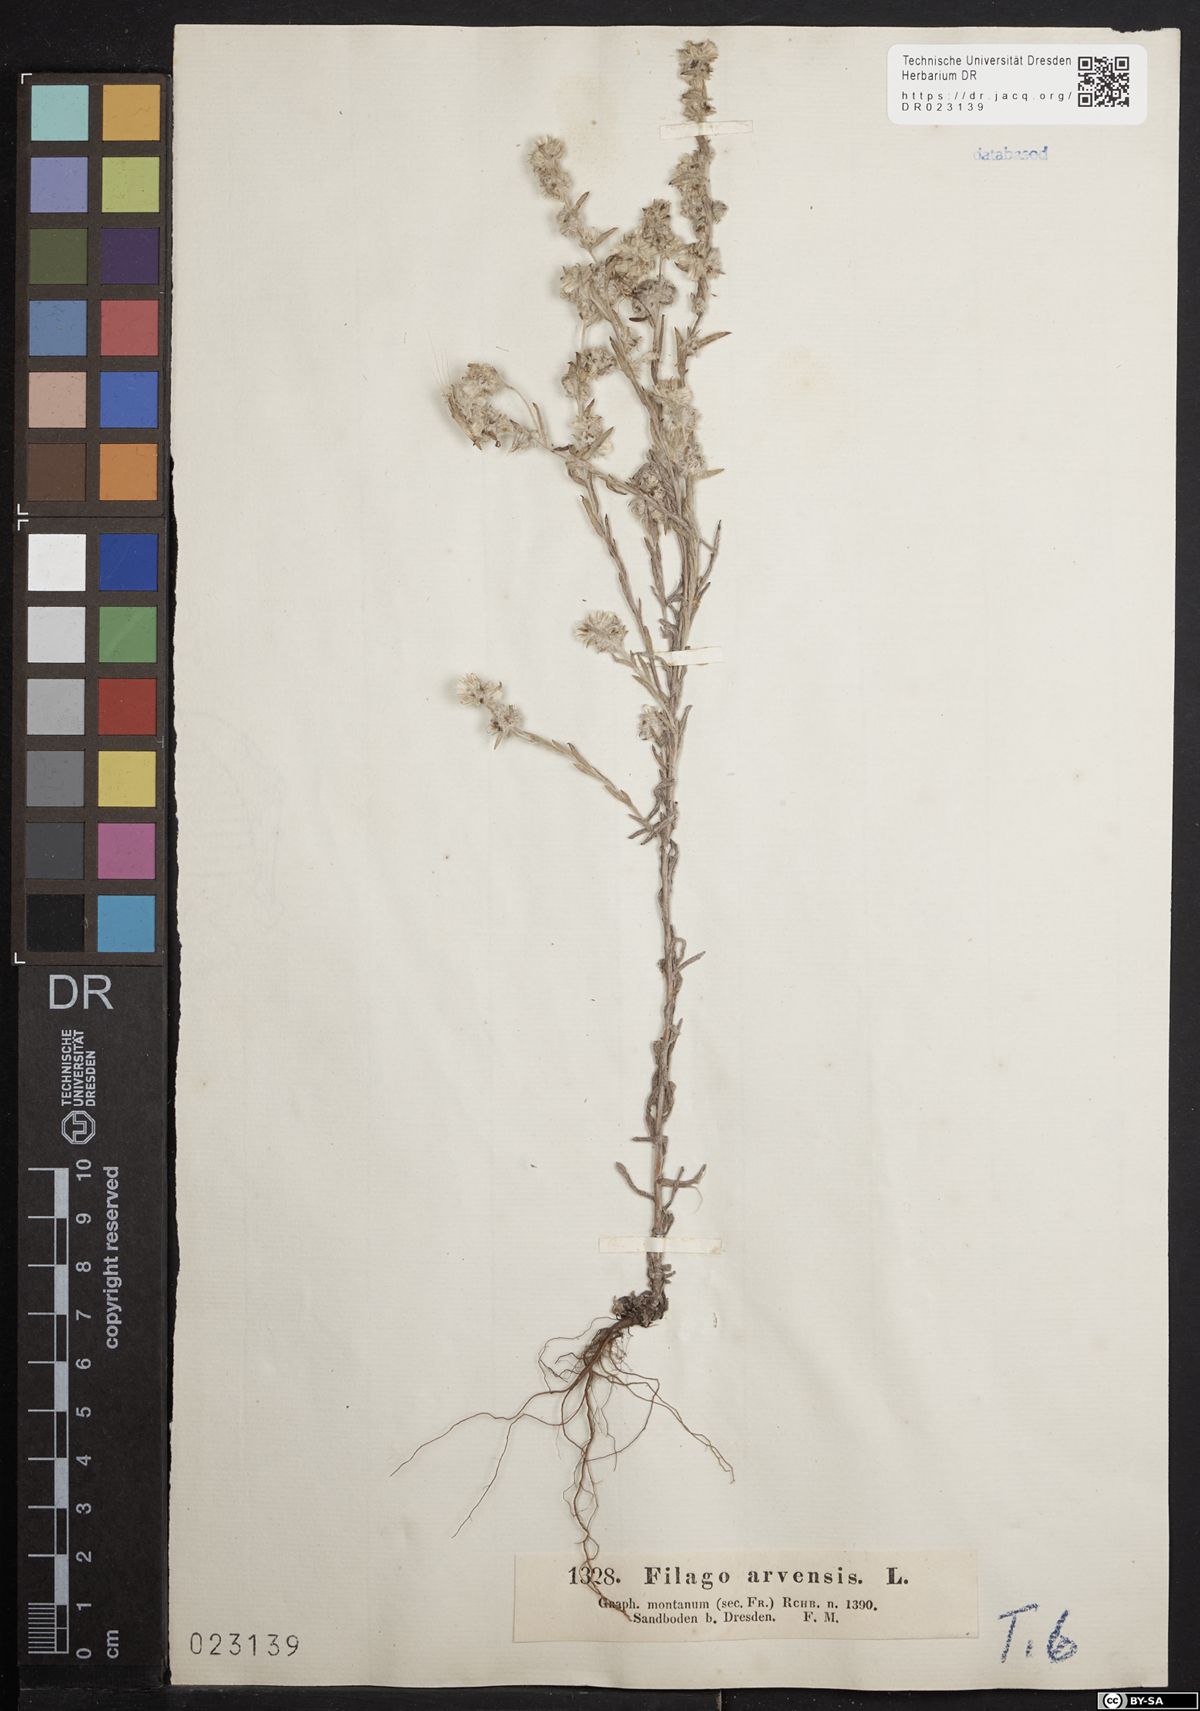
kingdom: Plantae
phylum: Tracheophyta
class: Magnoliopsida
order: Asterales
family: Asteraceae
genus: Filago
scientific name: Filago arvensis
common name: Field cudweed
